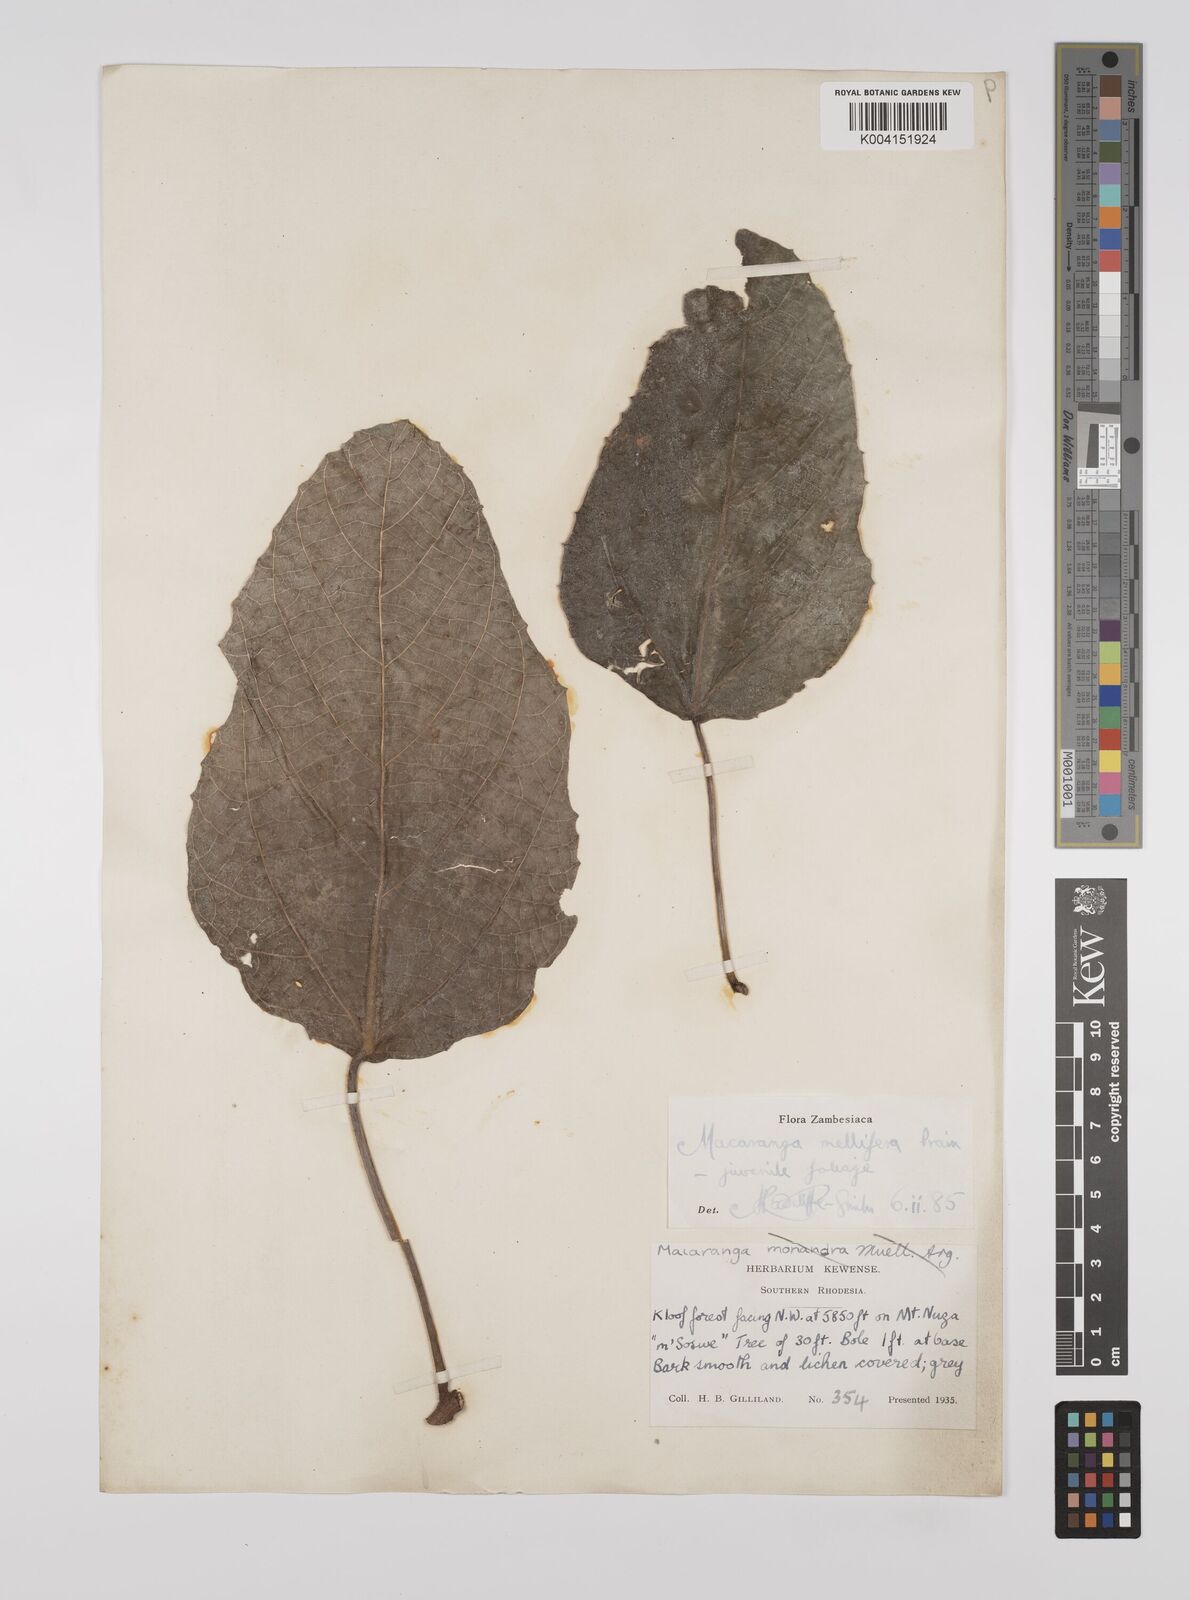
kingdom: Plantae
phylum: Tracheophyta
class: Magnoliopsida
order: Malpighiales
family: Euphorbiaceae
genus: Macaranga
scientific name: Macaranga mellifera
